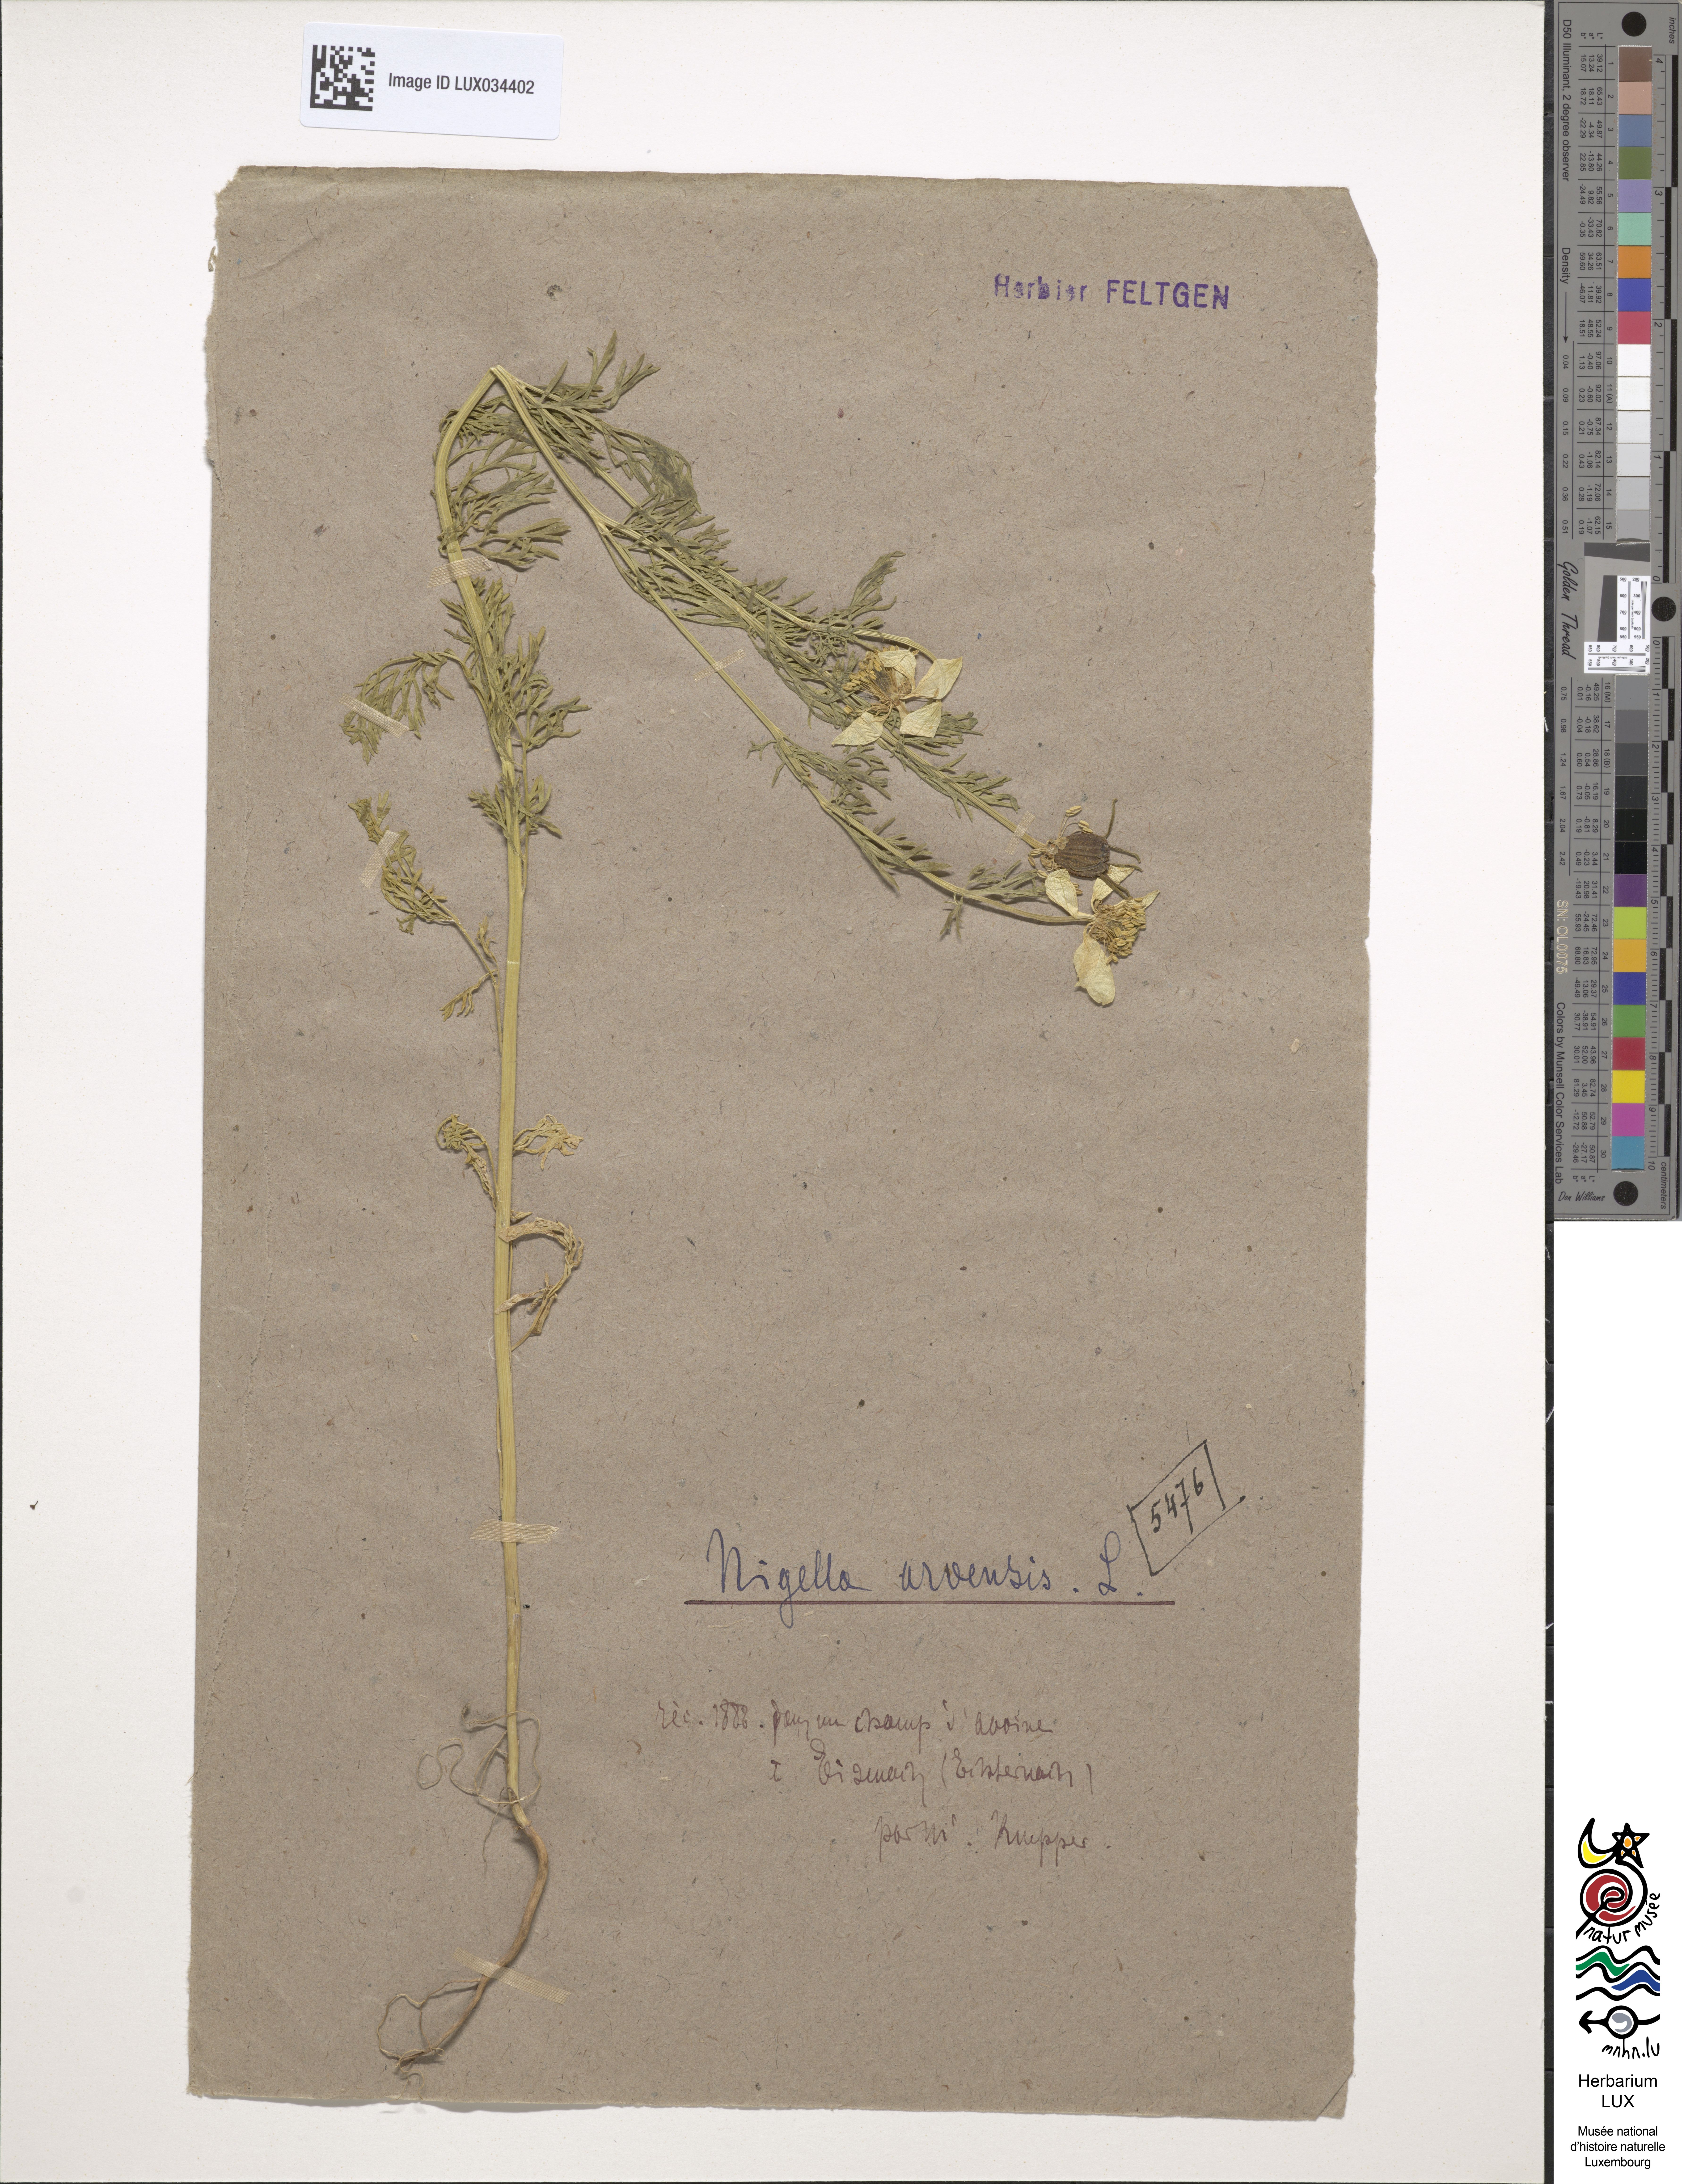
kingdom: Plantae
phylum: Tracheophyta
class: Magnoliopsida
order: Ranunculales
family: Ranunculaceae
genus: Nigella
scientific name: Nigella arvensis
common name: Wild fennel-flower
